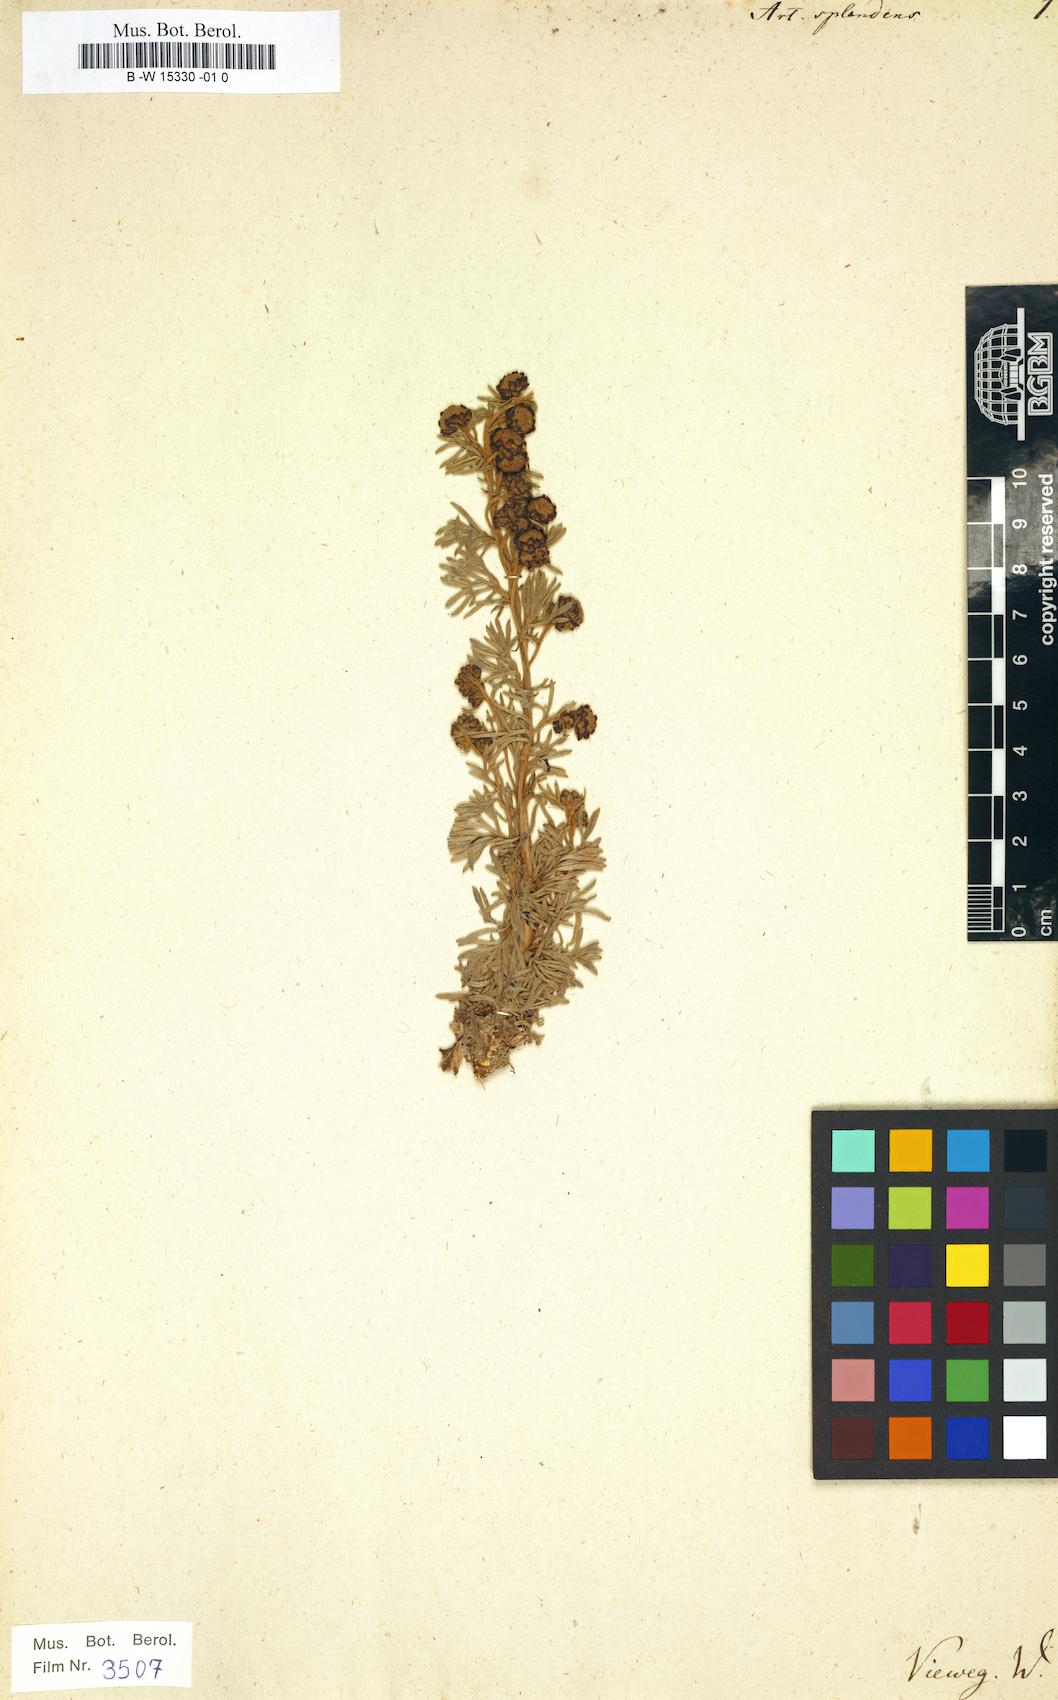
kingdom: Plantae
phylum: Tracheophyta
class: Magnoliopsida
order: Asterales
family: Asteraceae
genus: Artemisia
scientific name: Artemisia splendens
